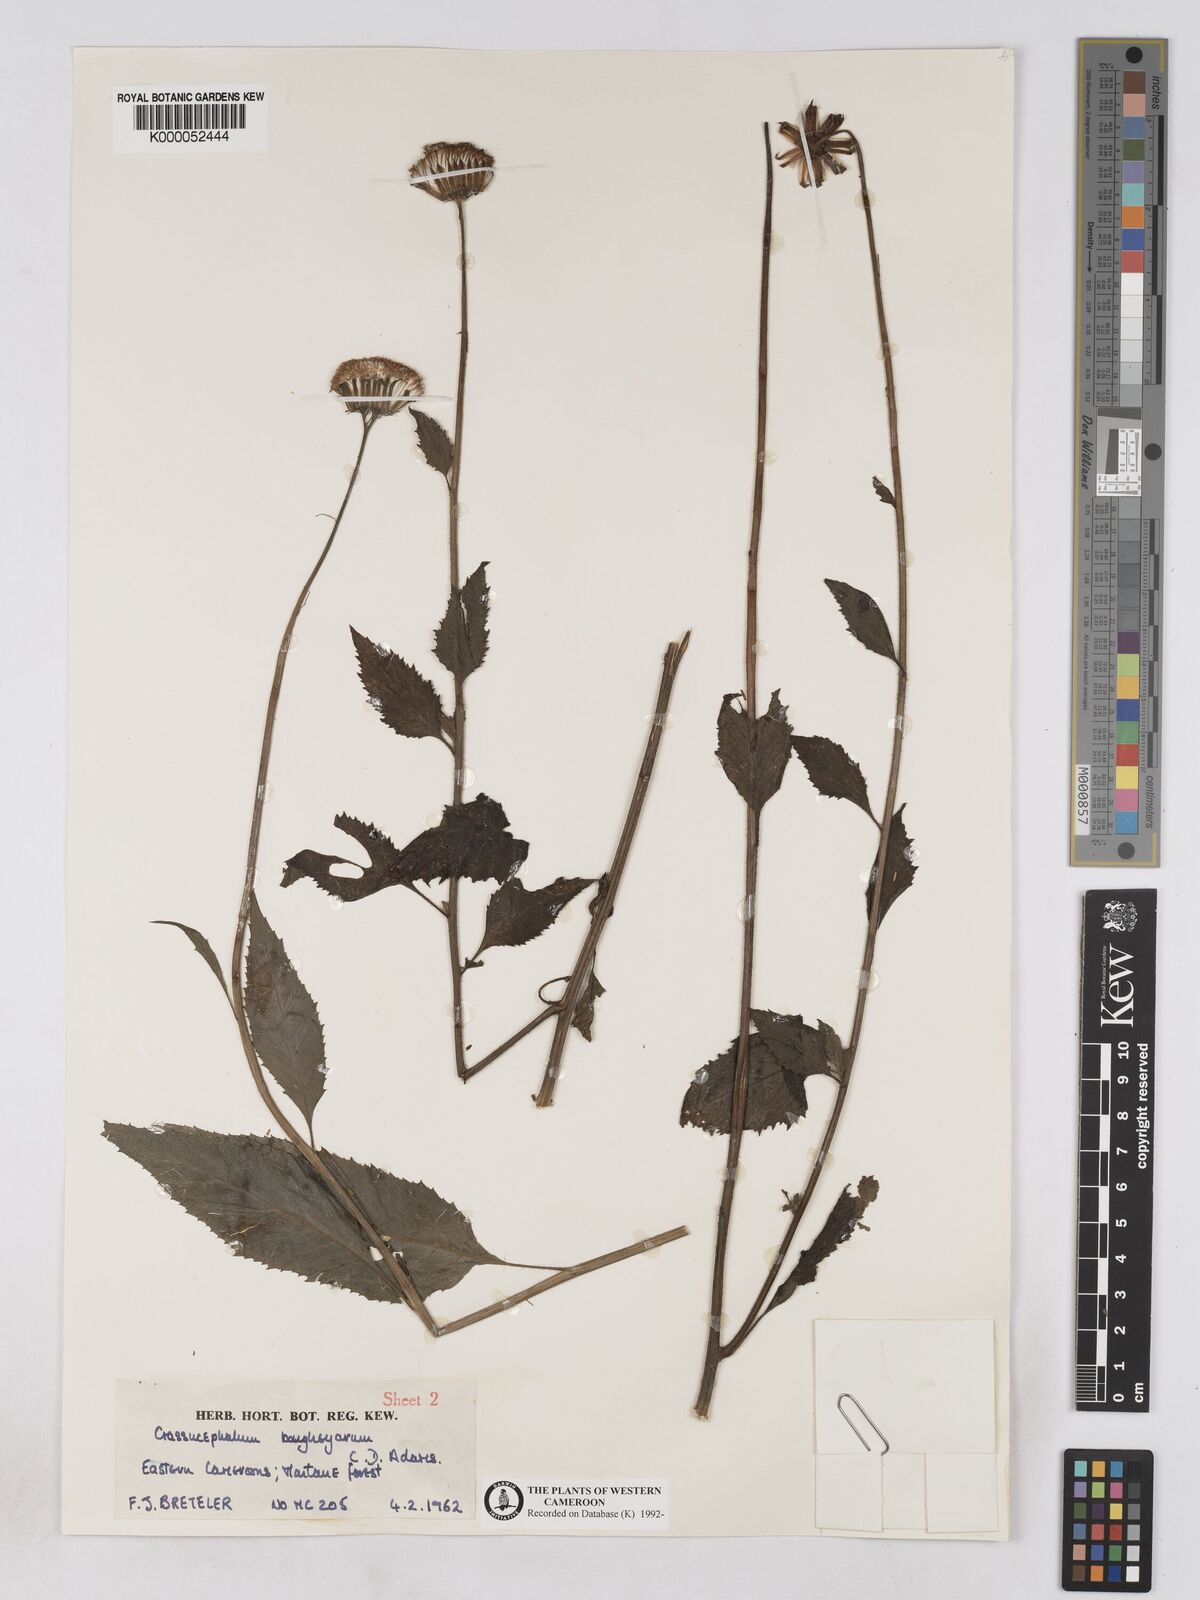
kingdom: Plantae
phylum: Tracheophyta
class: Magnoliopsida
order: Asterales
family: Asteraceae
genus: Crassocephalum
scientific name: Crassocephalum bougheyanum
